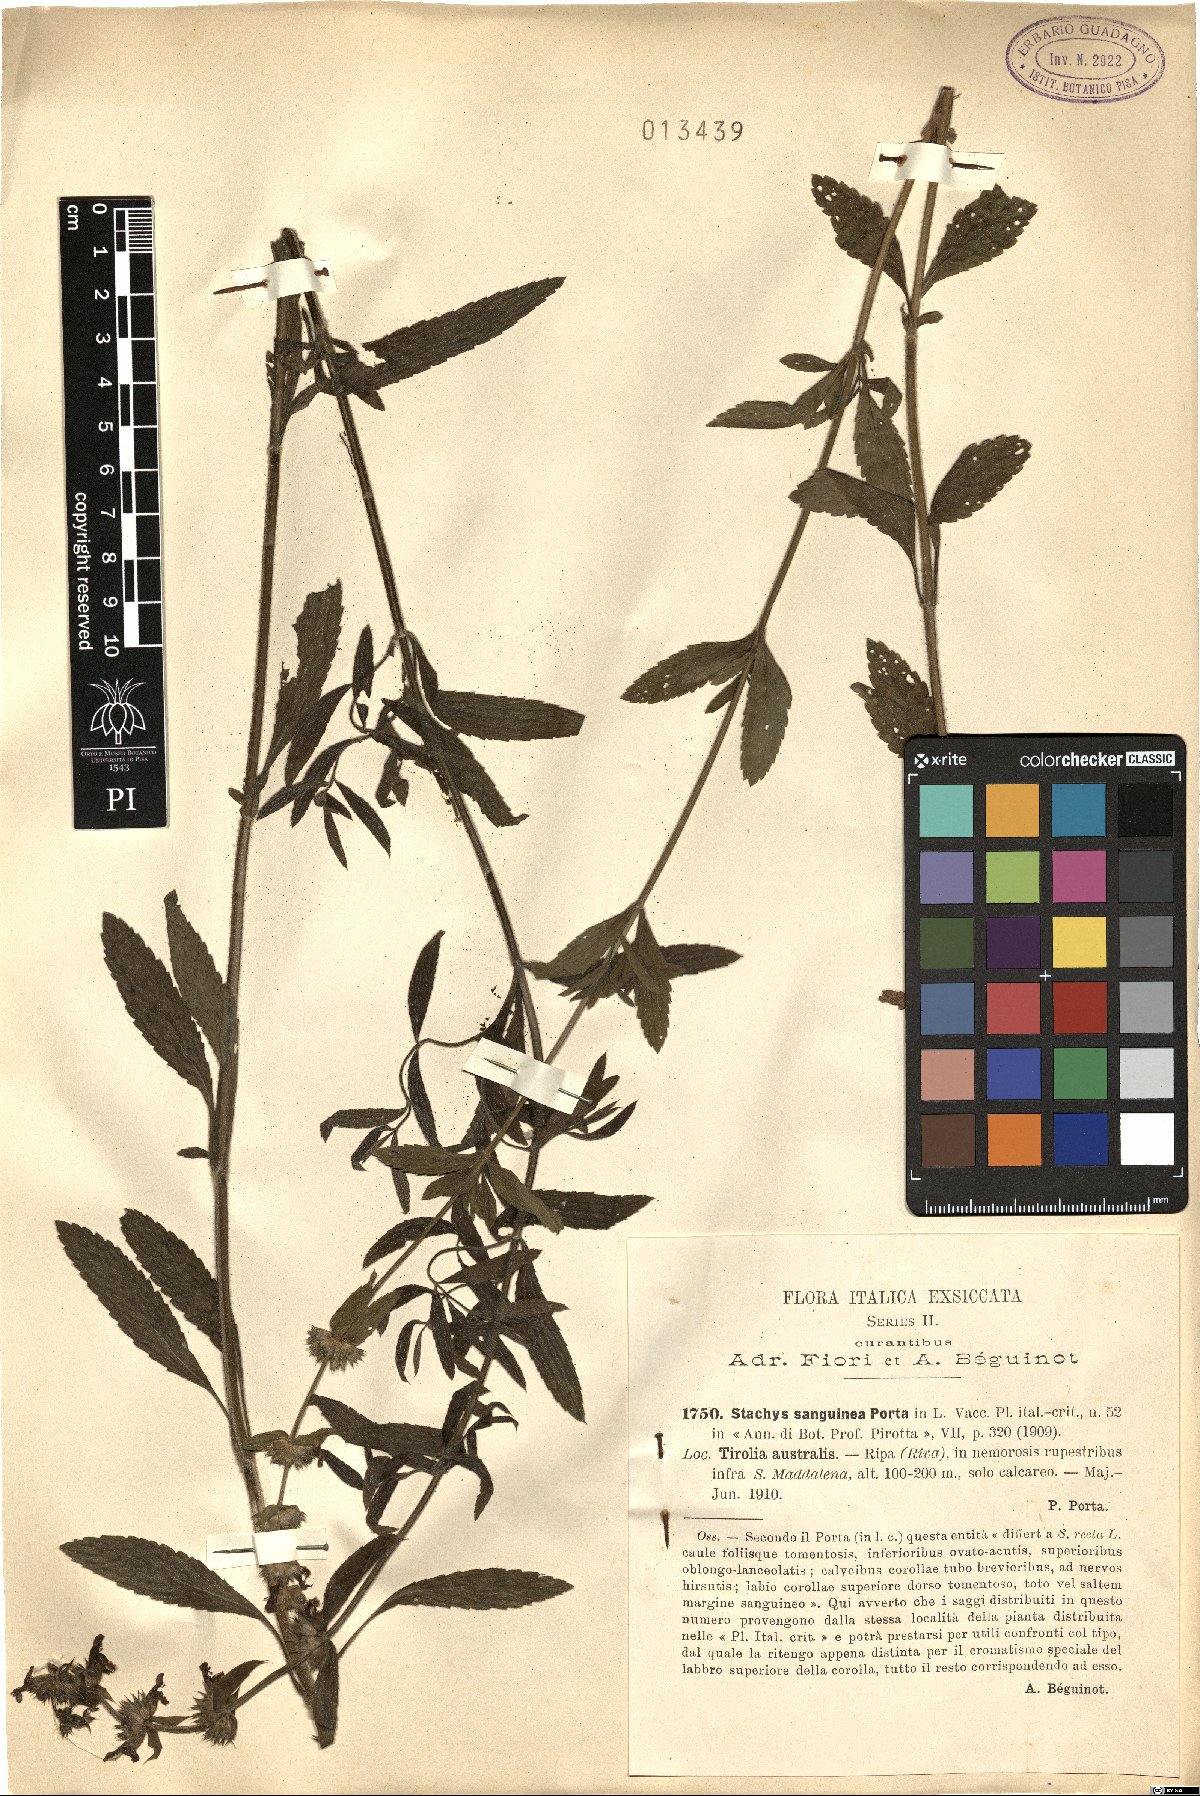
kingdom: Plantae
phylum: Tracheophyta
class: Magnoliopsida
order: Lamiales
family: Lamiaceae
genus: Stachys
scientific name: Stachys sanguinea
